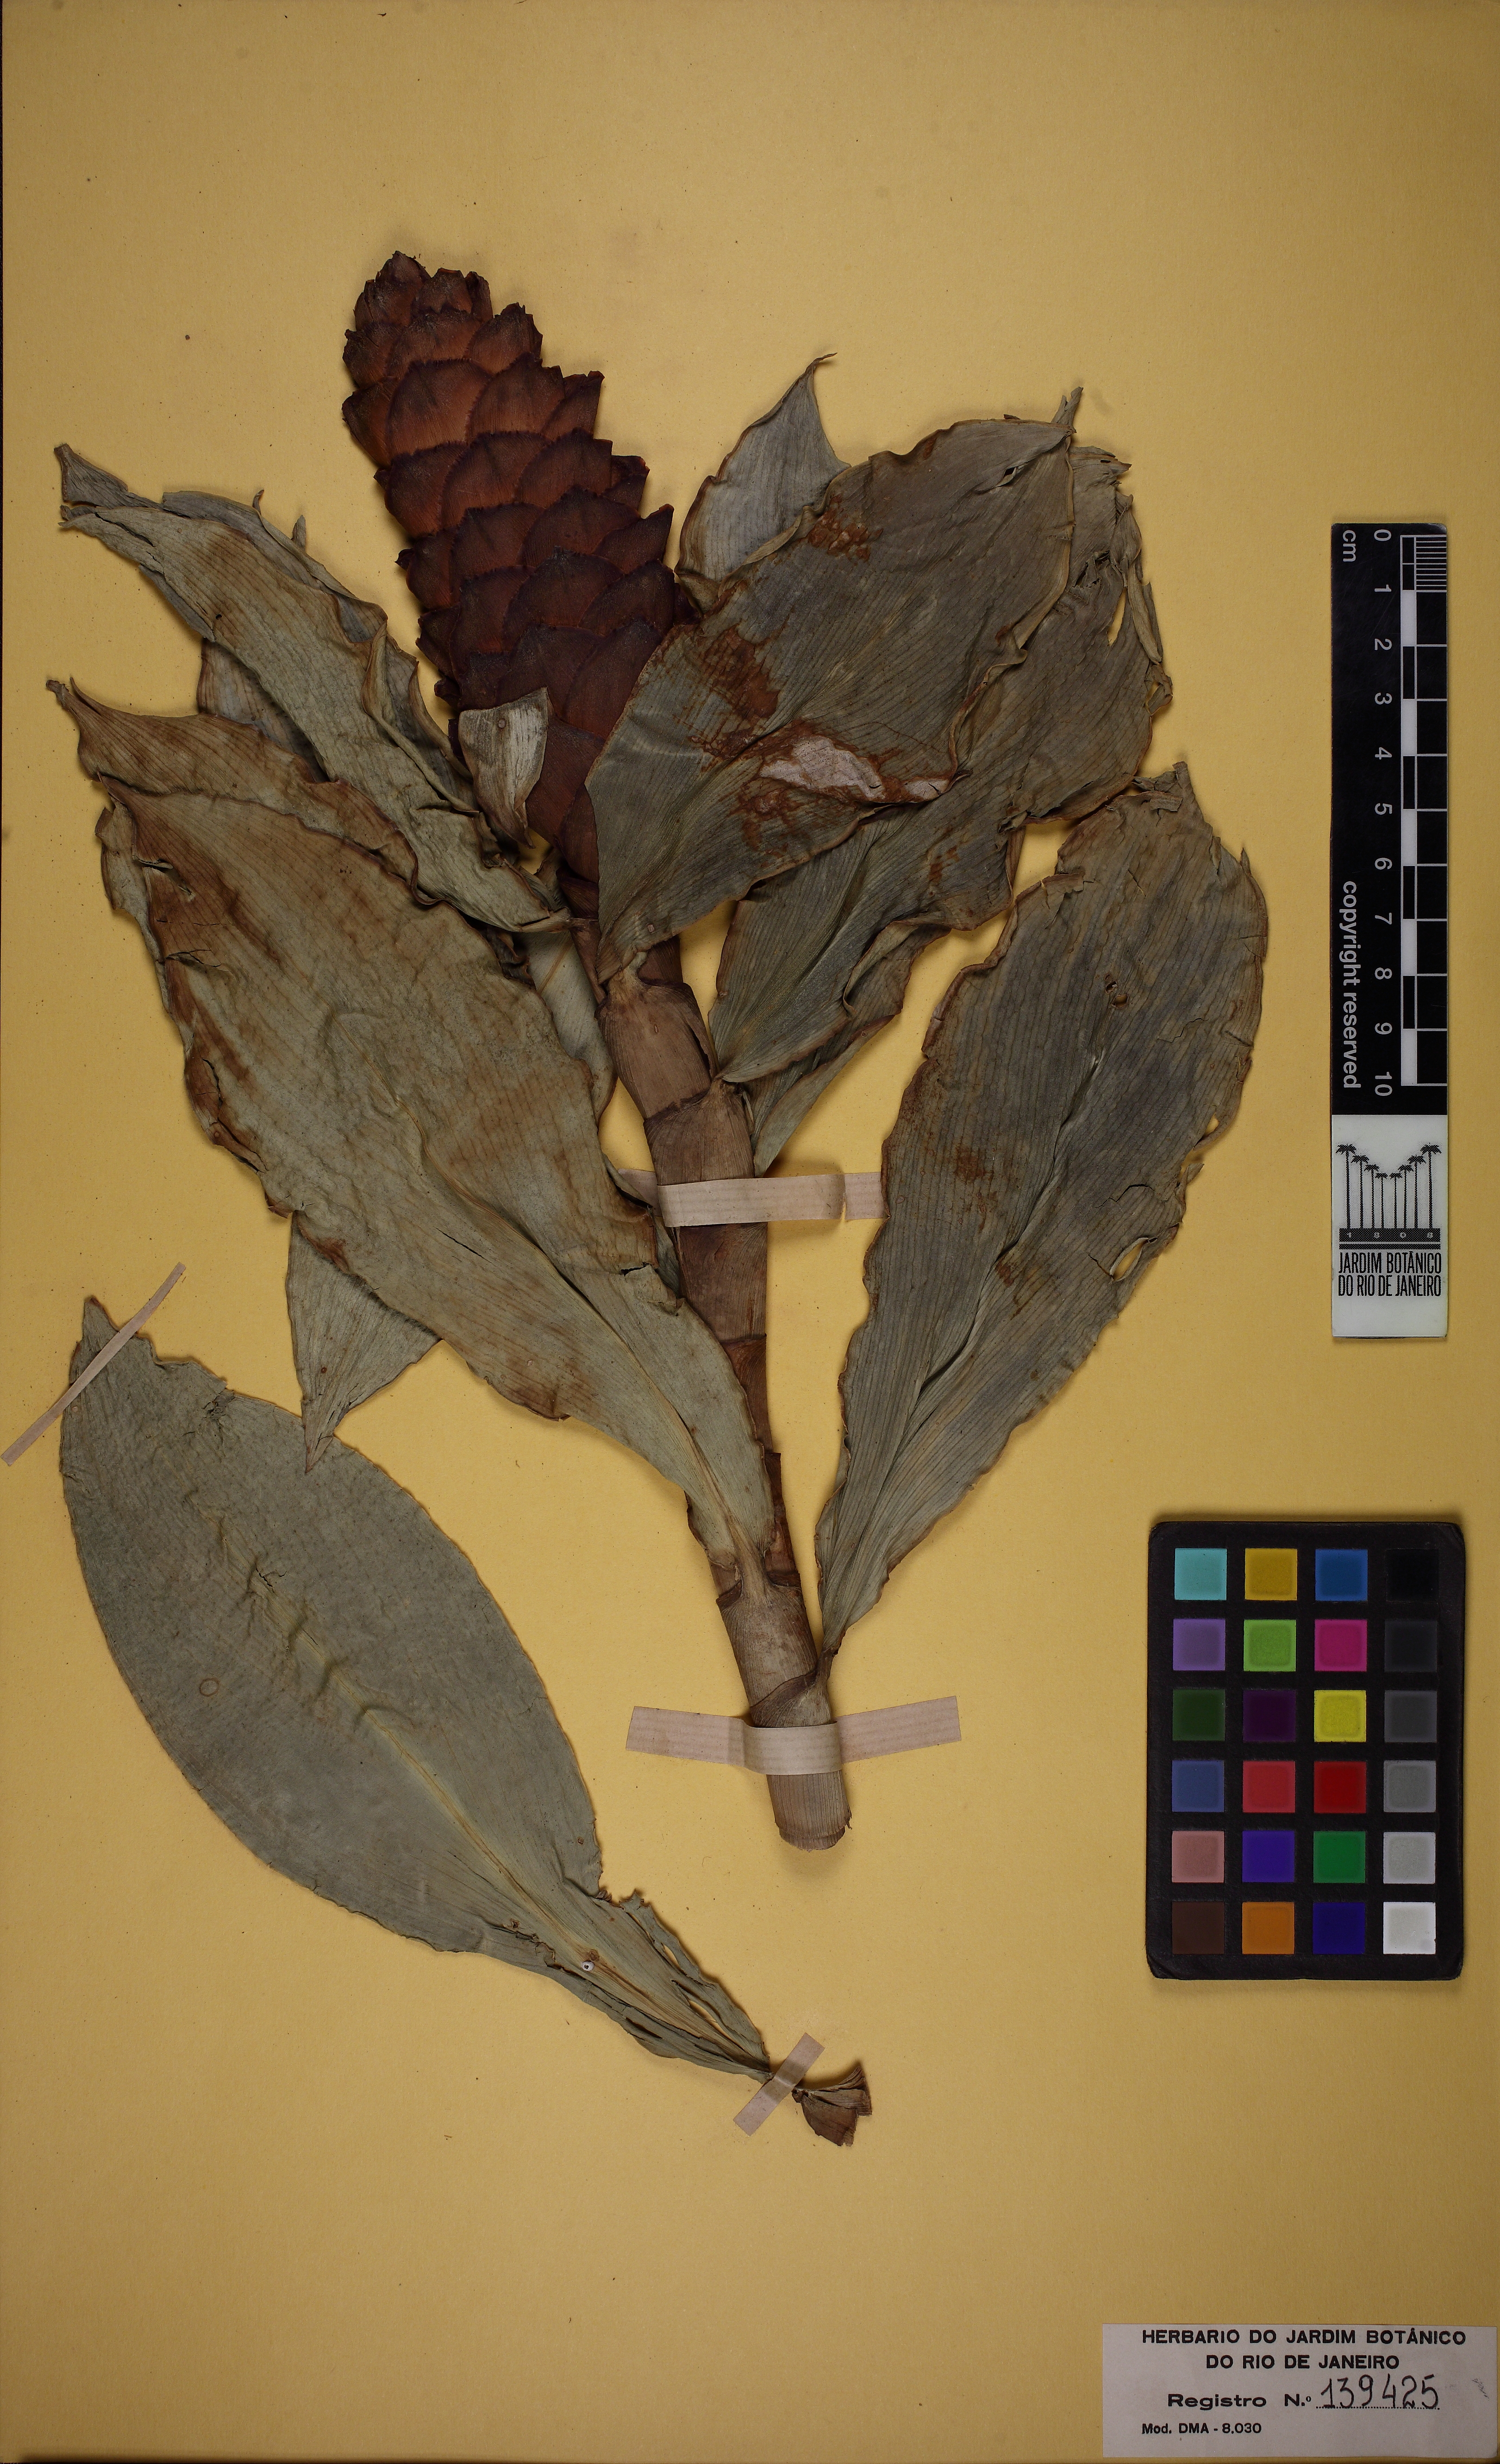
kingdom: Plantae
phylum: Tracheophyta
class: Liliopsida
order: Zingiberales
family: Costaceae
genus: Costus
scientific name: Costus spiralis
